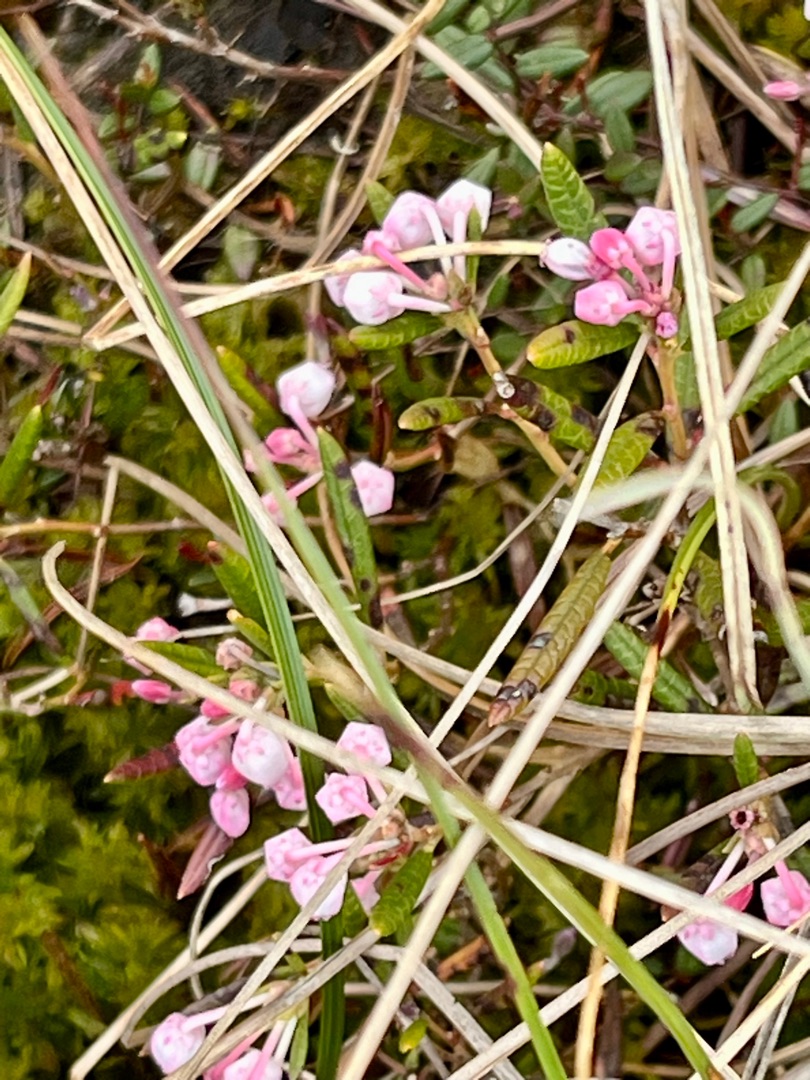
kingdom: Plantae
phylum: Tracheophyta
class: Magnoliopsida
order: Ericales
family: Ericaceae
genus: Andromeda
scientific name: Andromeda polifolia
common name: Rosmarinlyng
